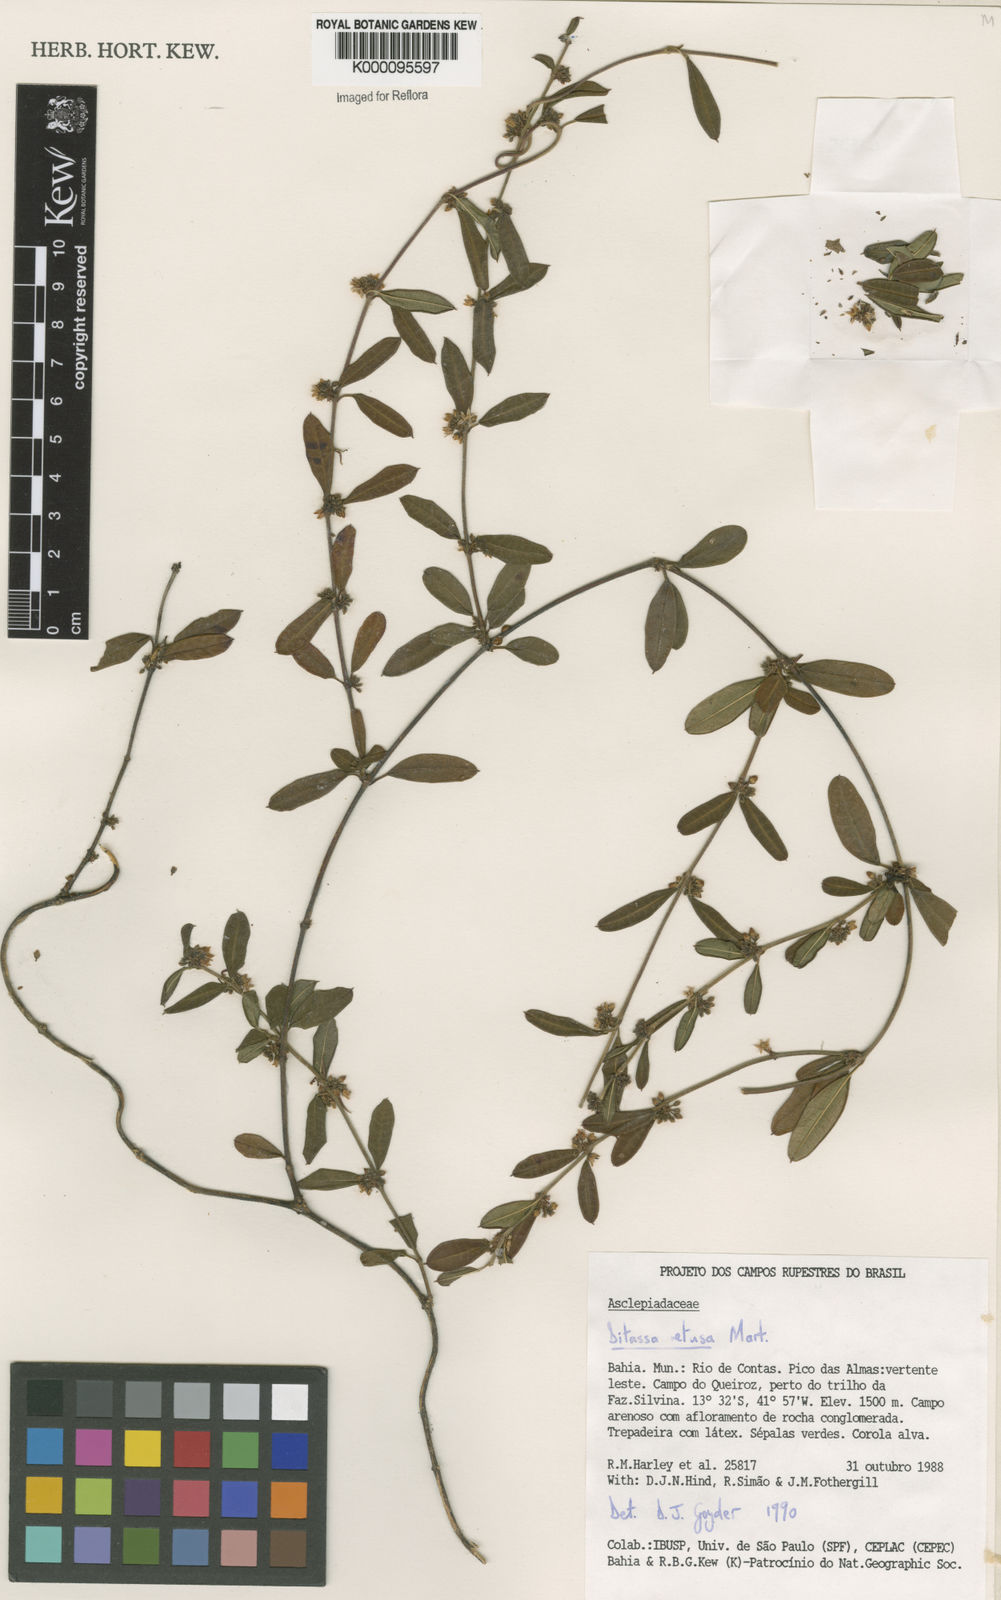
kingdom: Plantae
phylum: Tracheophyta
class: Magnoliopsida
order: Gentianales
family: Apocynaceae
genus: Ditassa
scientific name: Ditassa retusa
